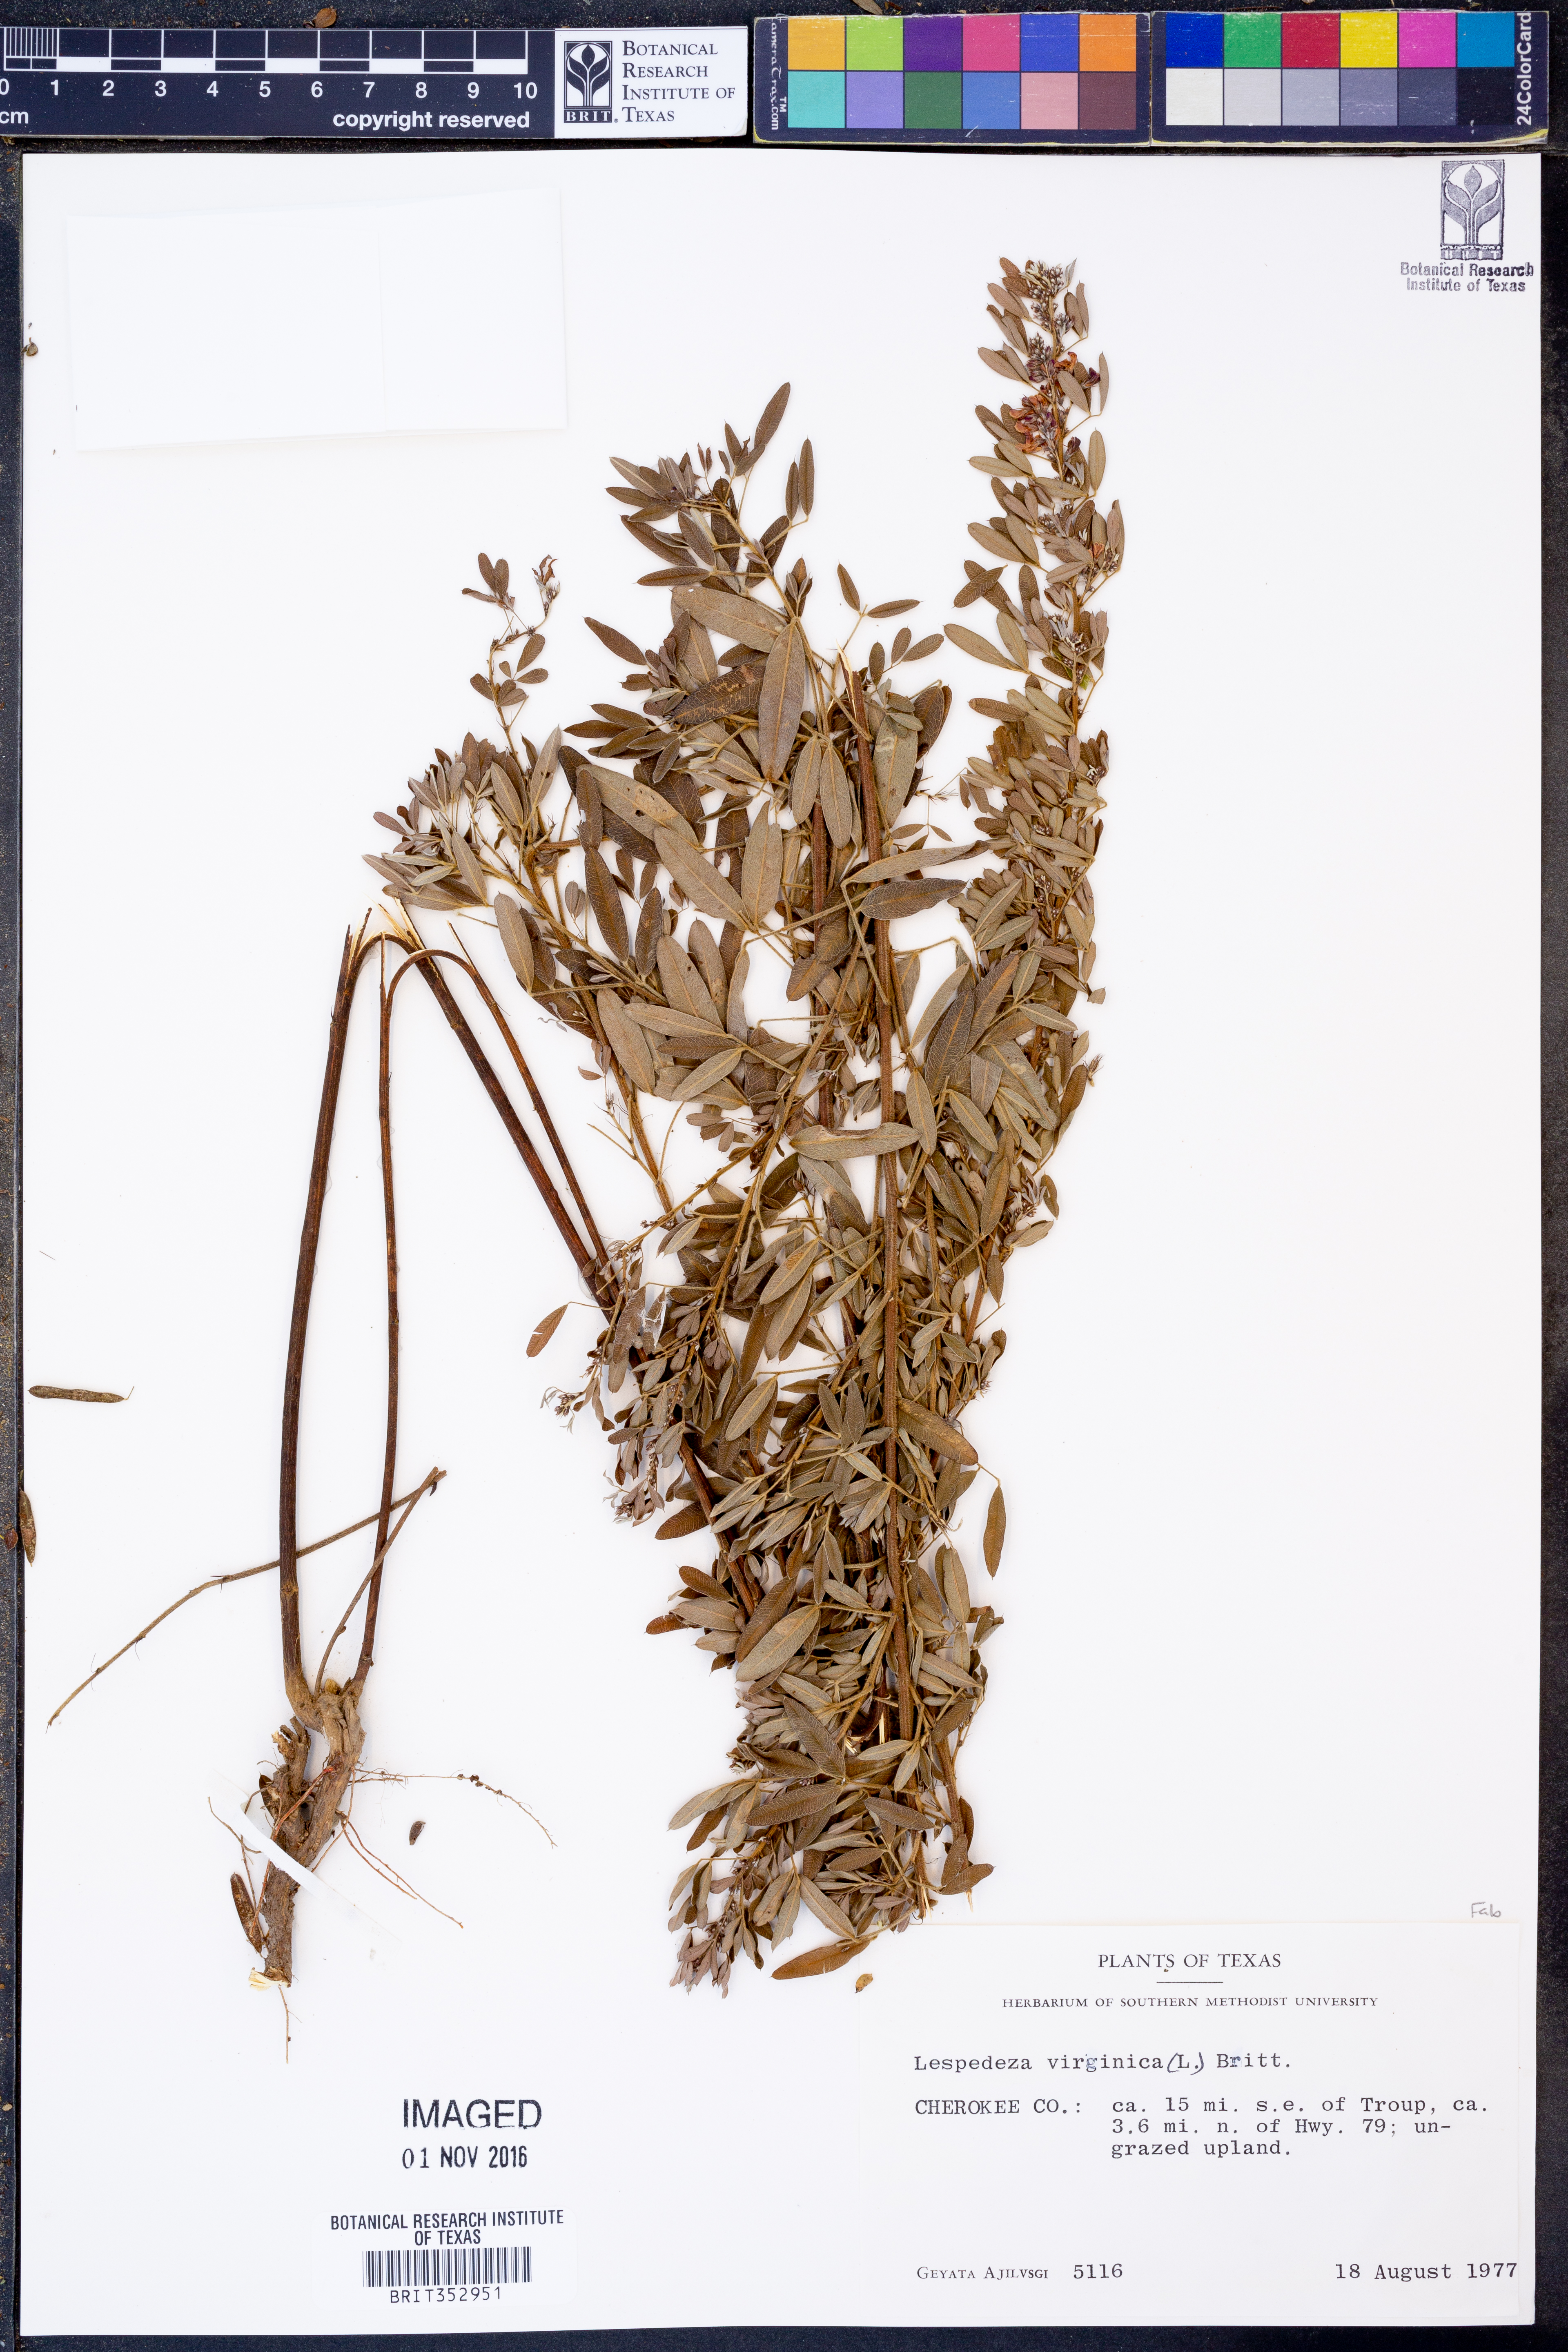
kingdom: Plantae
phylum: Tracheophyta
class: Magnoliopsida
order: Fabales
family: Fabaceae
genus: Lespedeza
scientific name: Lespedeza virginica
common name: Slender bush-clover
